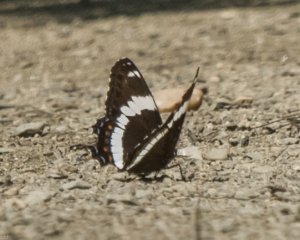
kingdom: Animalia
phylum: Arthropoda
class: Insecta
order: Lepidoptera
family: Nymphalidae
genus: Limenitis
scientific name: Limenitis arthemis
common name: Red-spotted Admiral
